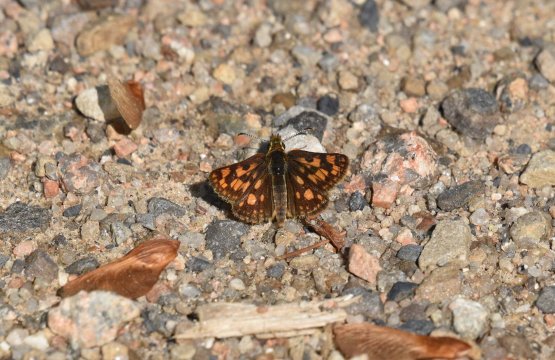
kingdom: Animalia
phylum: Arthropoda
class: Insecta
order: Lepidoptera
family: Hesperiidae
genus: Carterocephalus
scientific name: Carterocephalus palaemon
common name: Chequered Skipper
